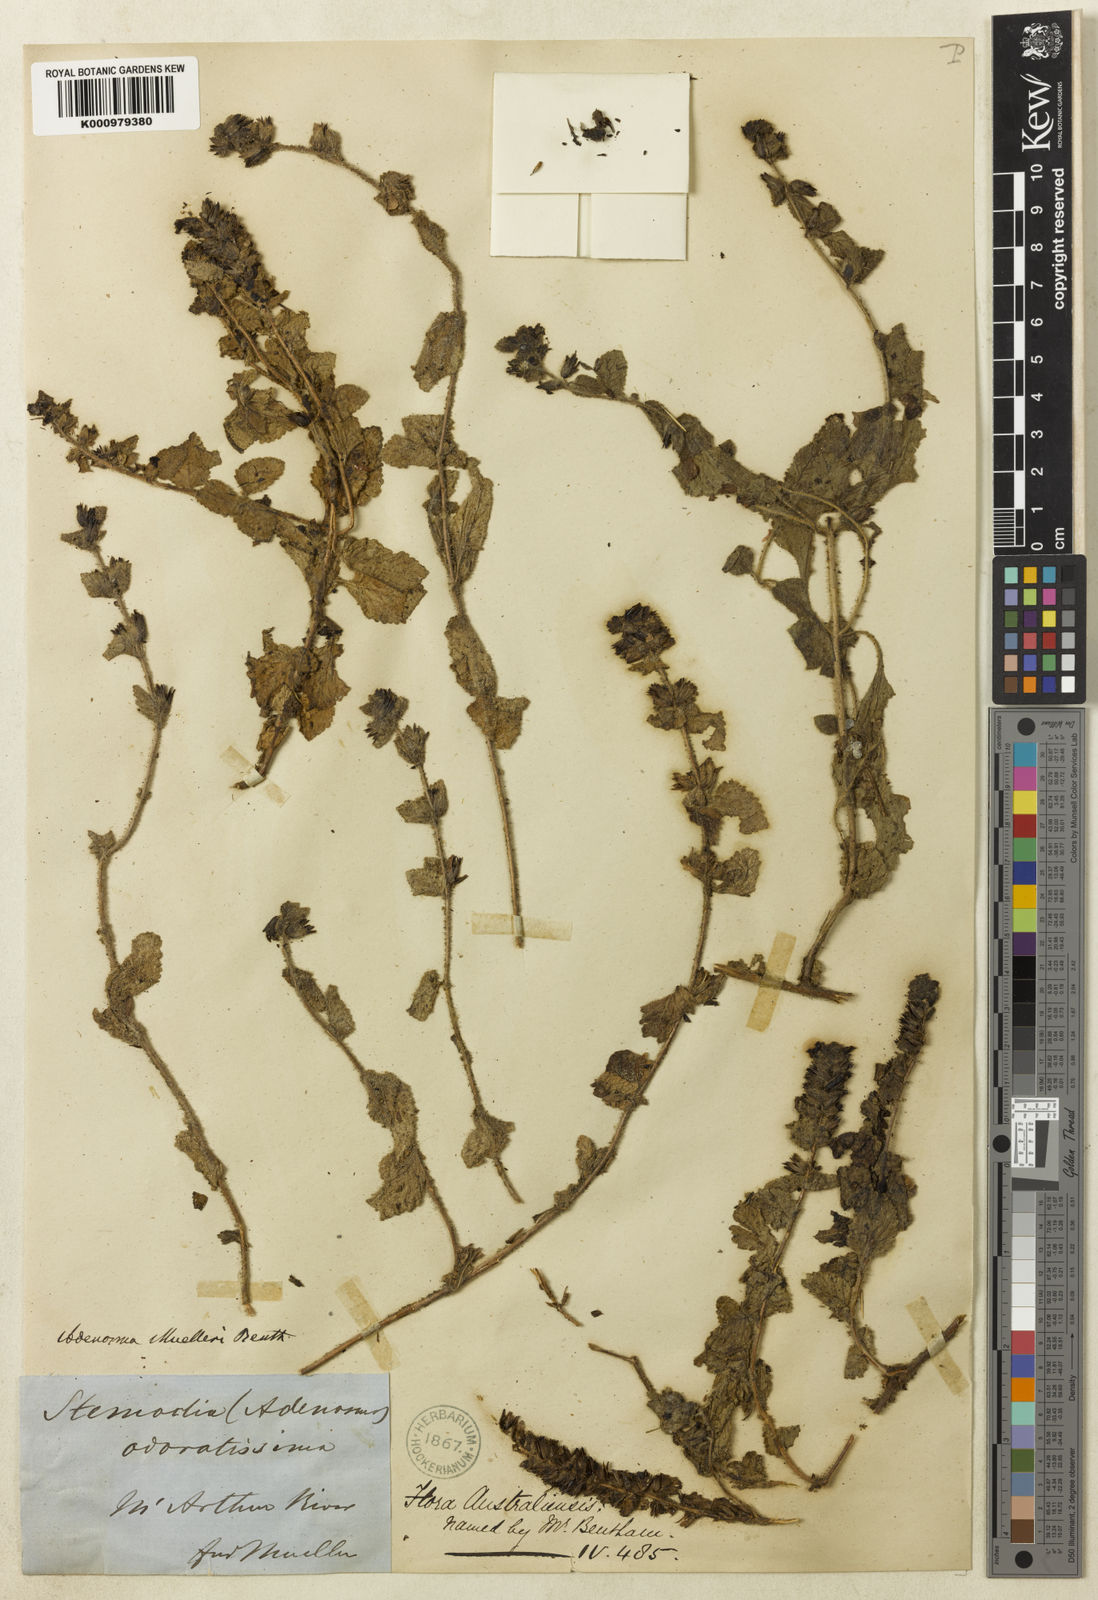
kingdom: Plantae
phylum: Tracheophyta
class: Magnoliopsida
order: Lamiales
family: Plantaginaceae
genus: Adenosma
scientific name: Adenosma muelleri
